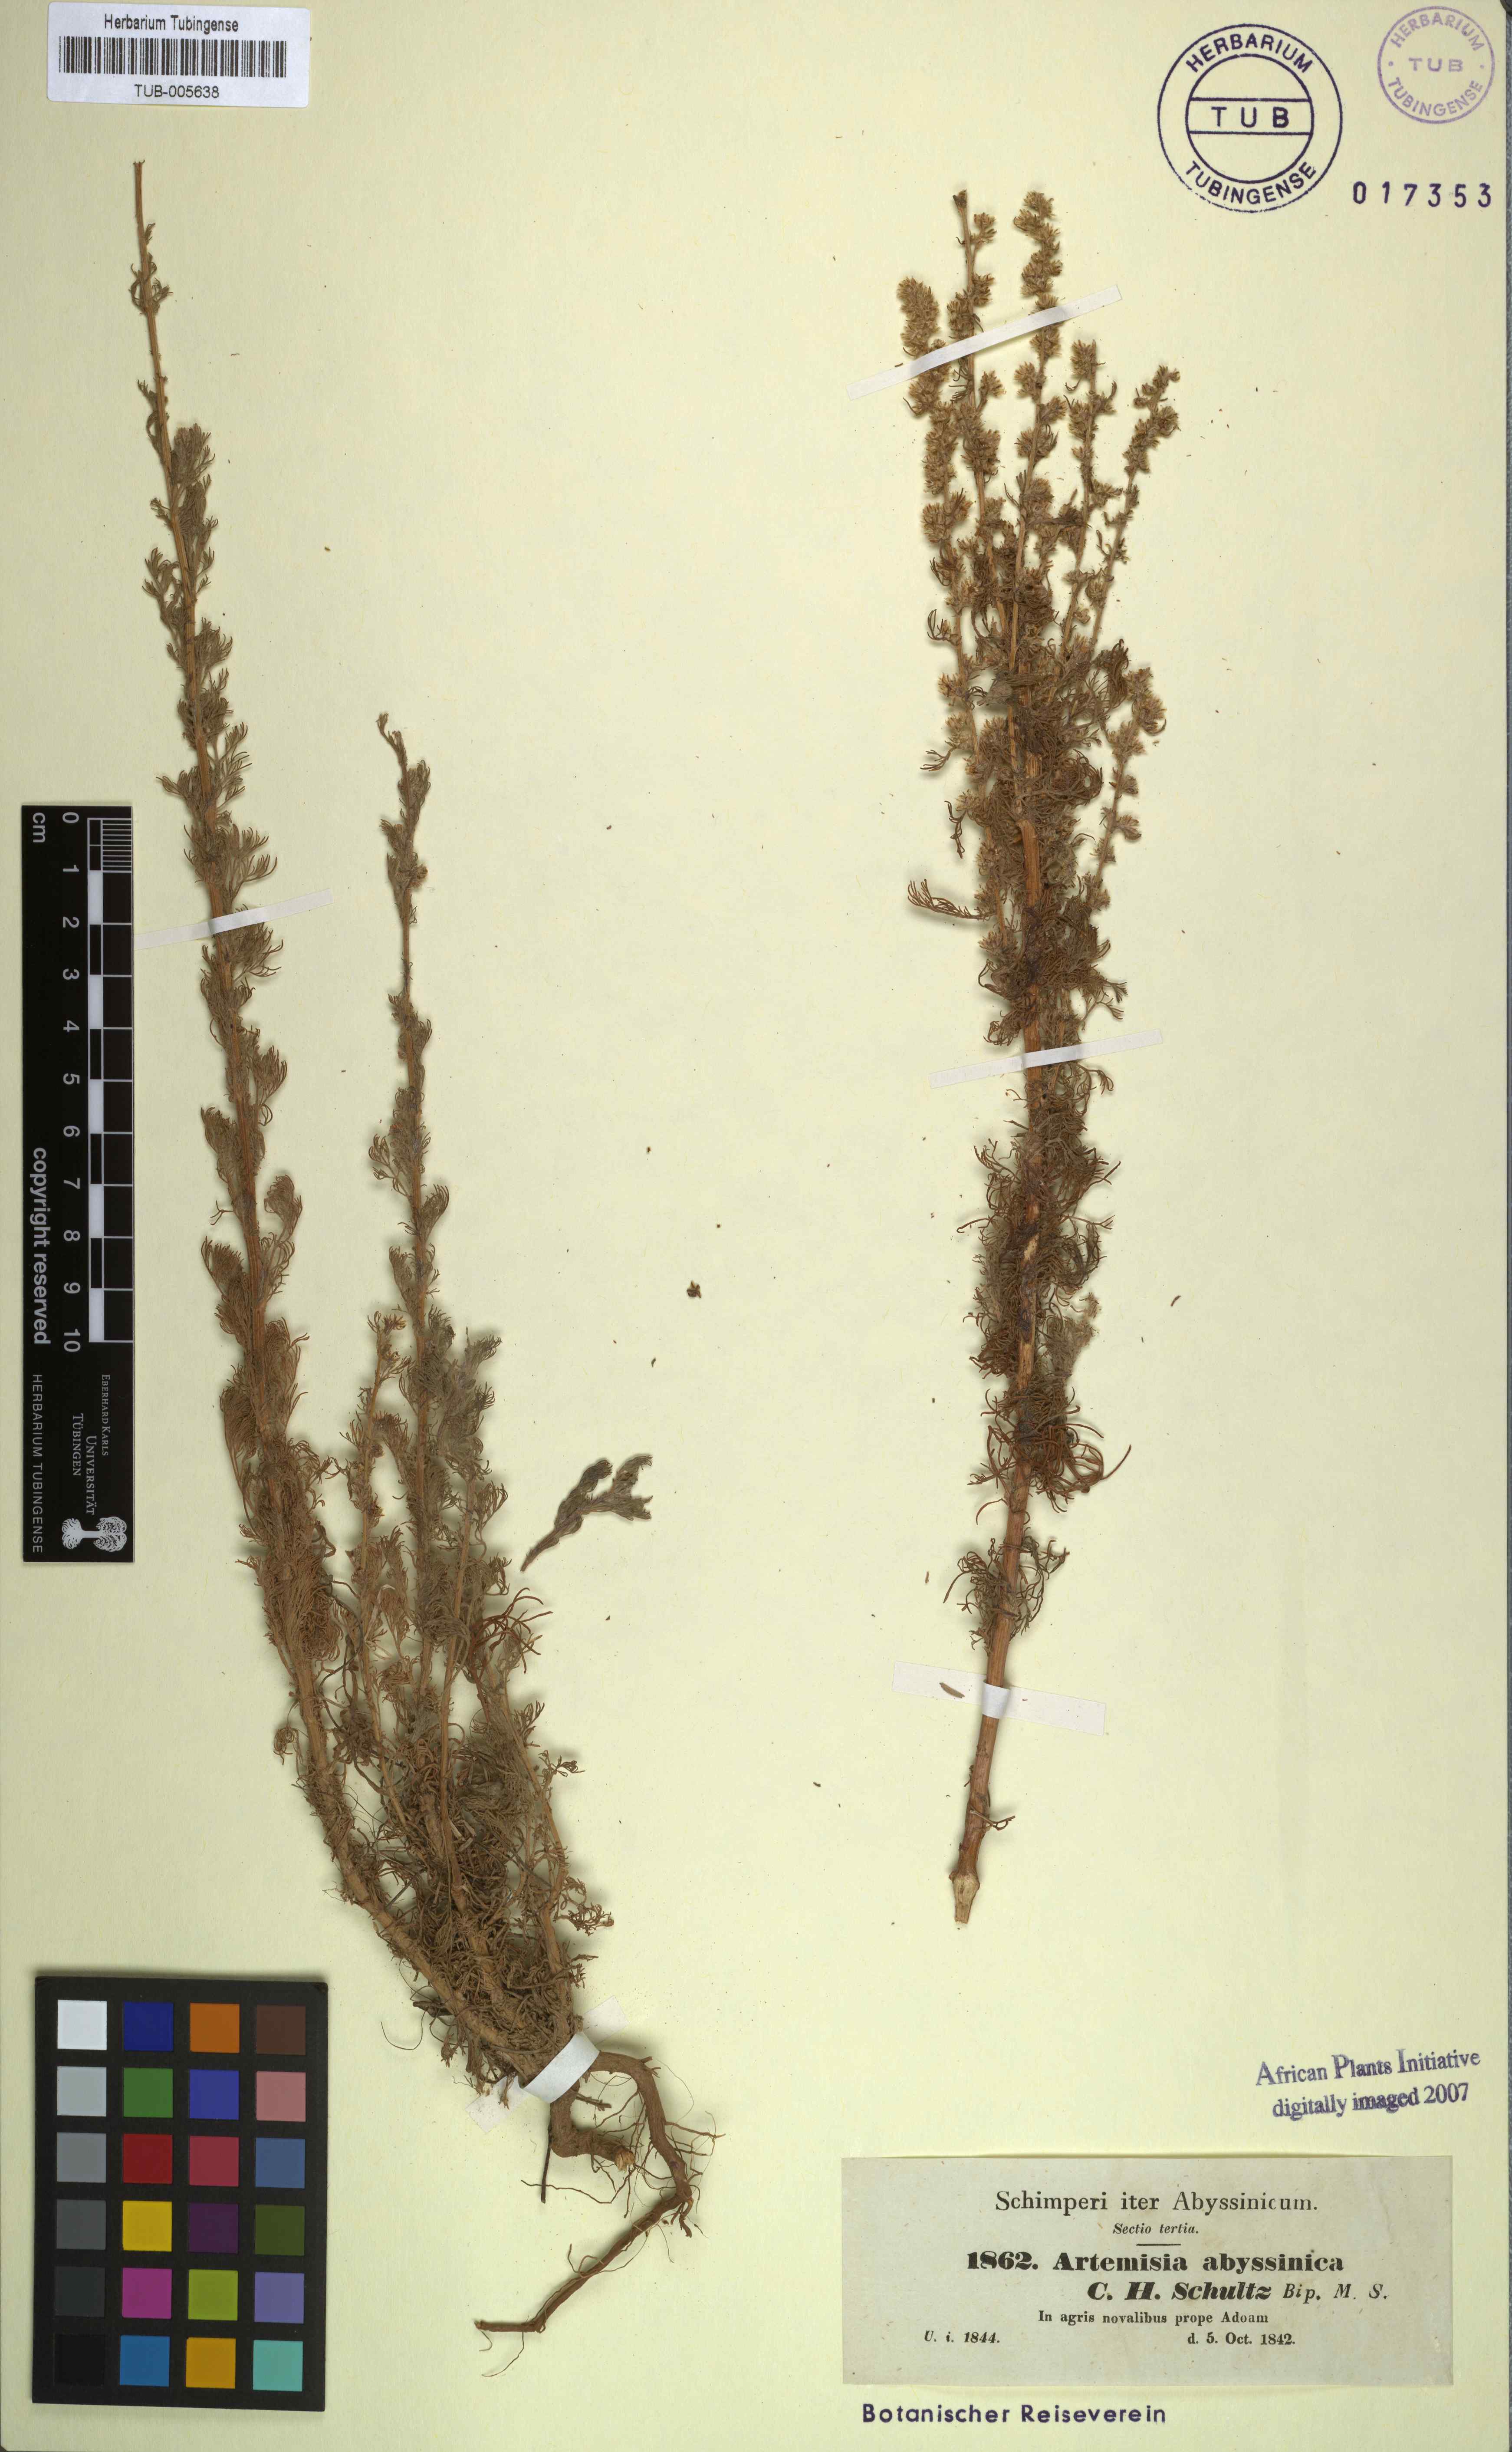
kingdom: Plantae
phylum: Tracheophyta
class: Magnoliopsida
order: Asterales
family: Asteraceae
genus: Artemisia
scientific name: Artemisia abyssinica
